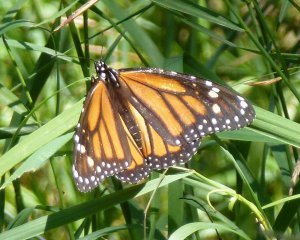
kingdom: Animalia
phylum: Arthropoda
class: Insecta
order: Lepidoptera
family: Nymphalidae
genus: Danaus
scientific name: Danaus plexippus
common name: Monarch
